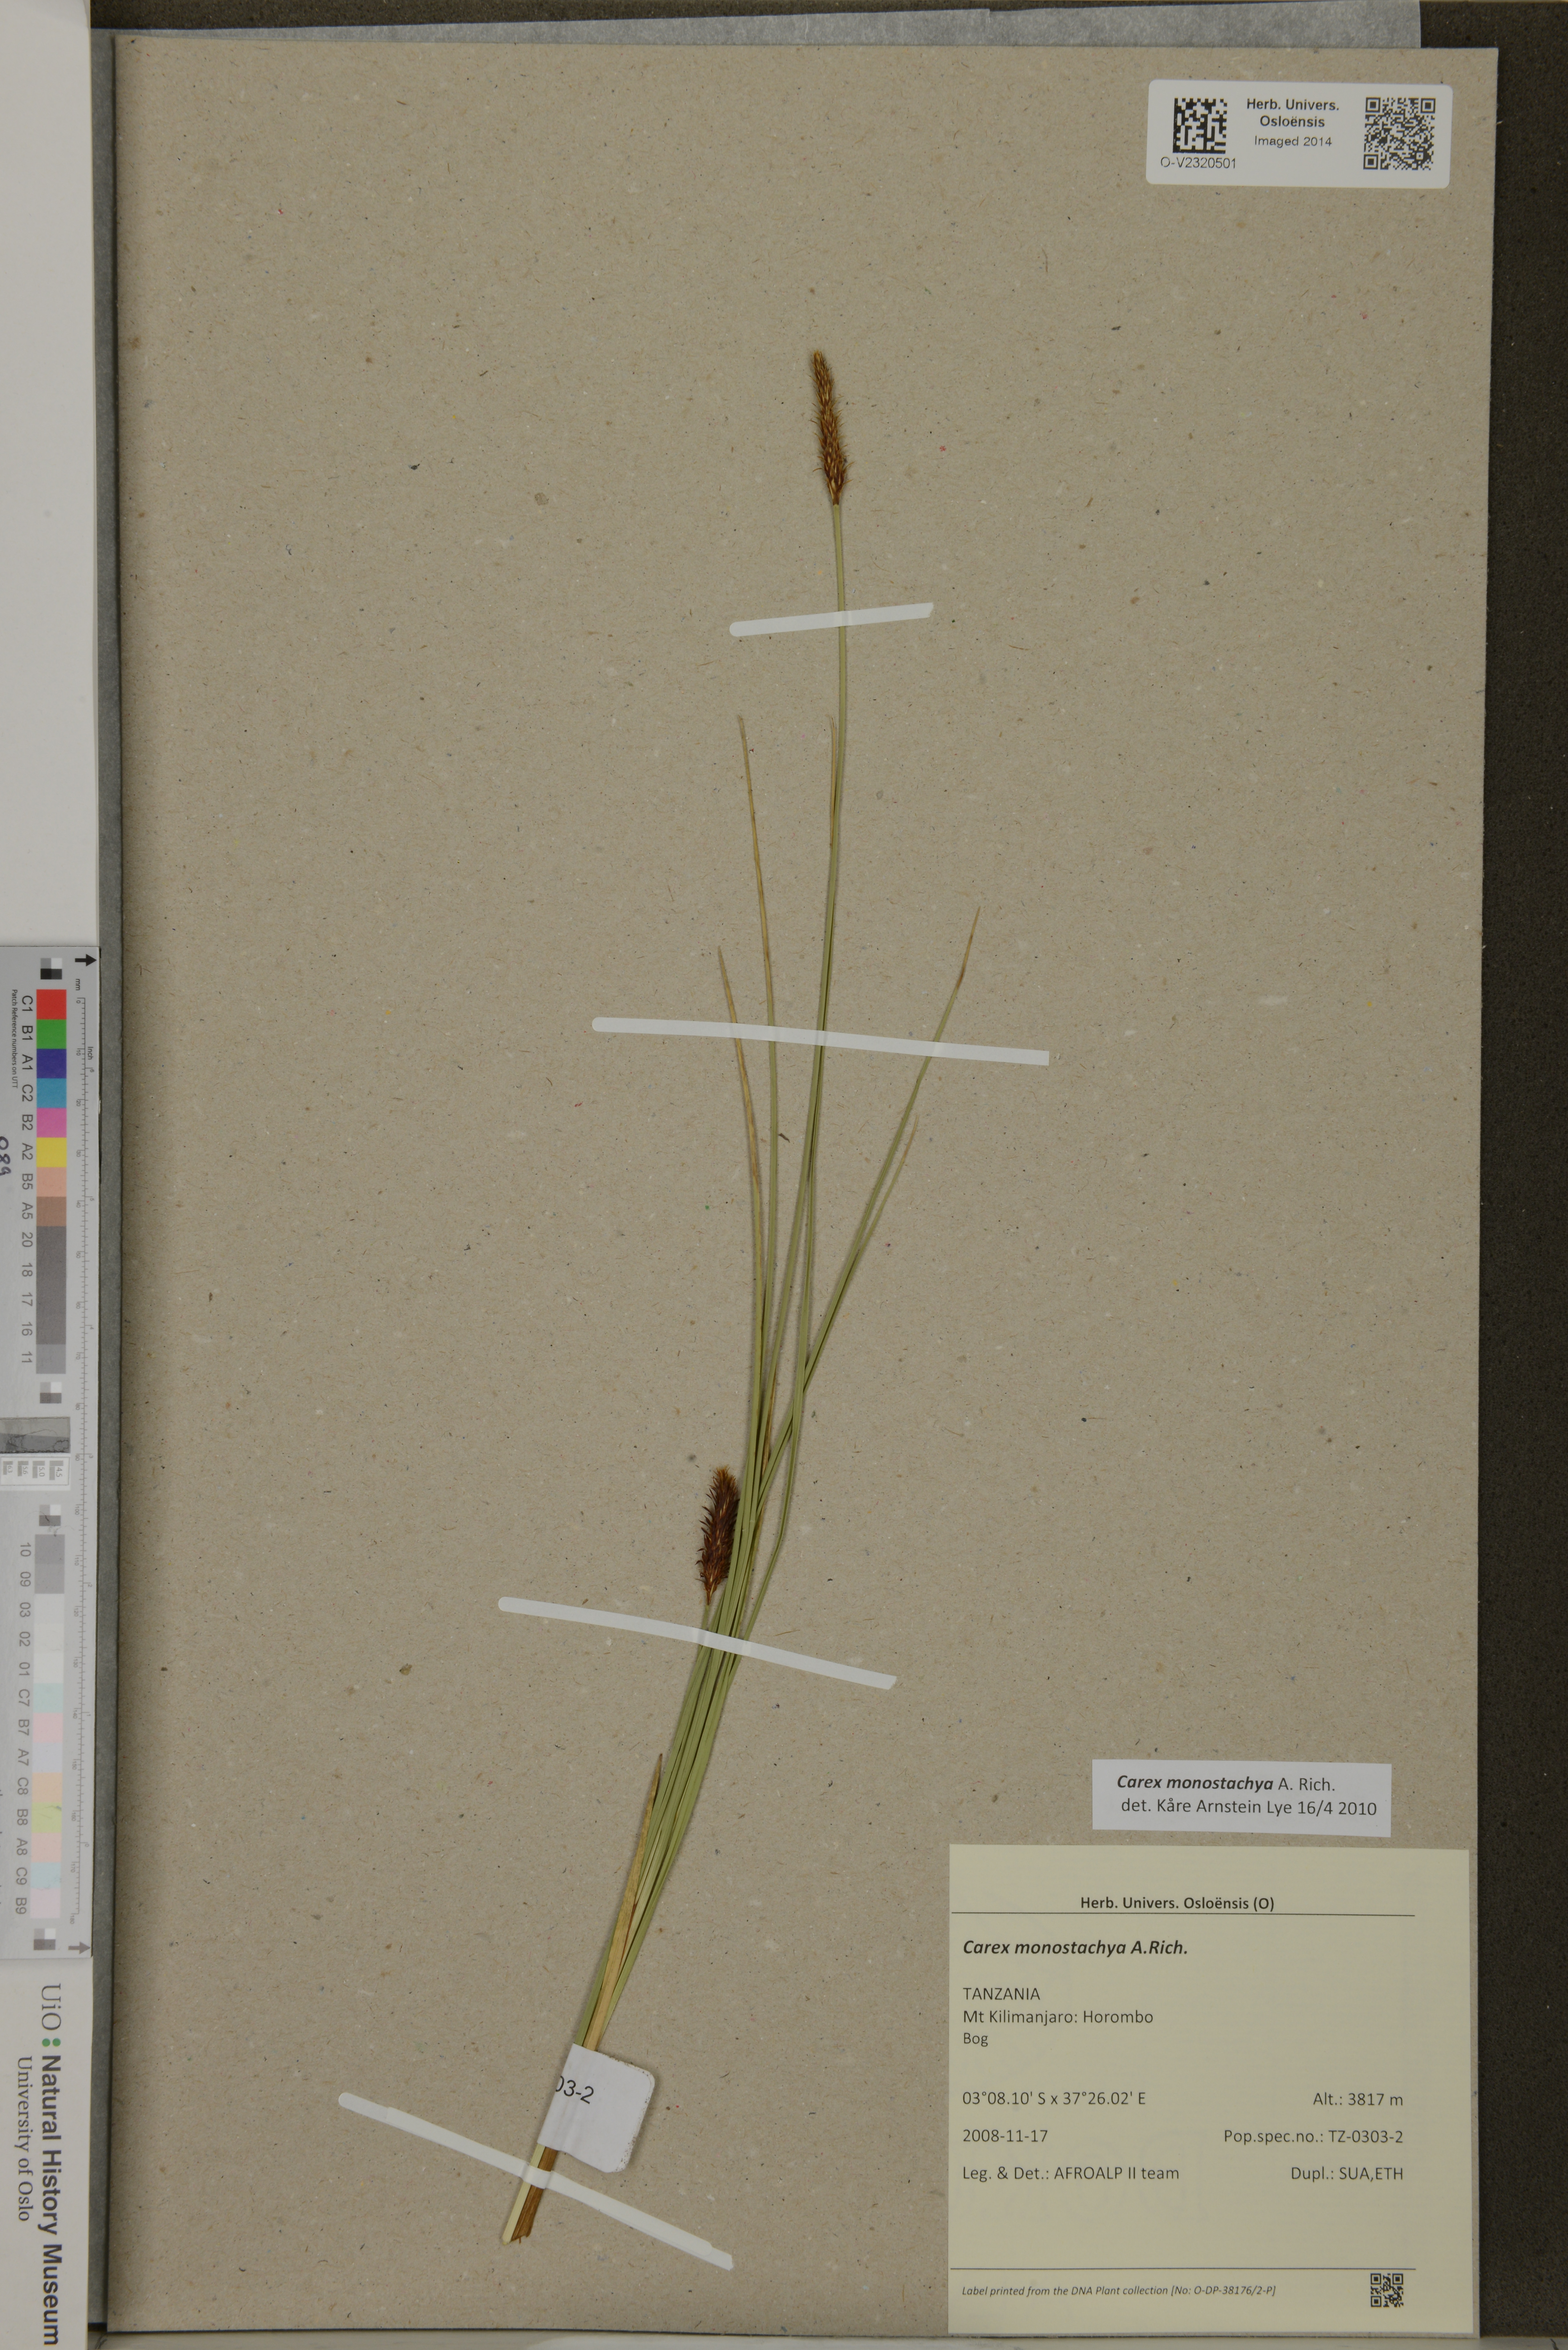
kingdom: Plantae
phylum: Tracheophyta
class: Liliopsida
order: Poales
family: Cyperaceae
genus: Carex
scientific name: Carex monostachya
